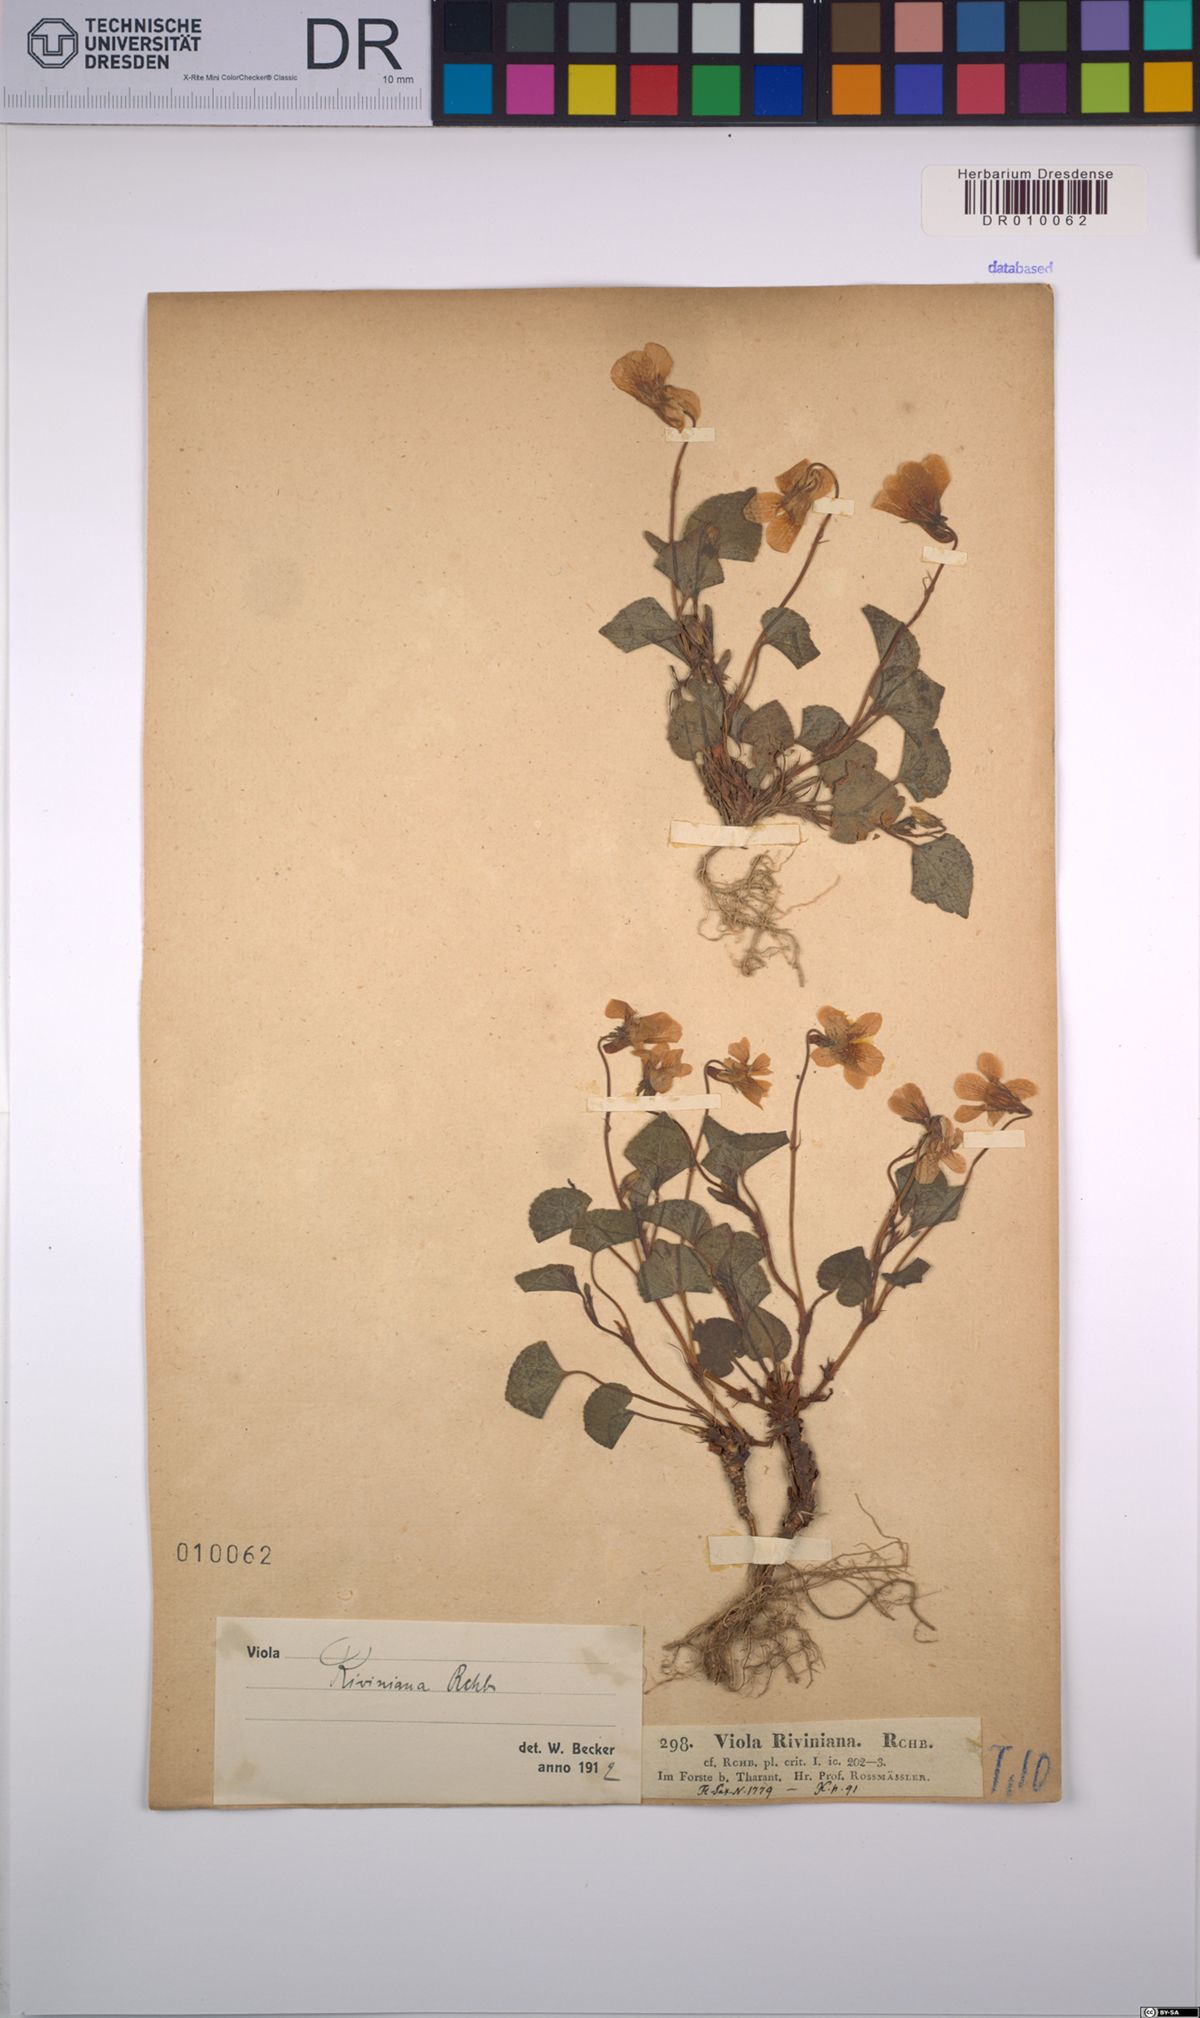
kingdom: Plantae
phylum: Tracheophyta
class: Magnoliopsida
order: Malpighiales
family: Violaceae
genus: Viola
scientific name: Viola riviniana
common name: Common dog-violet
